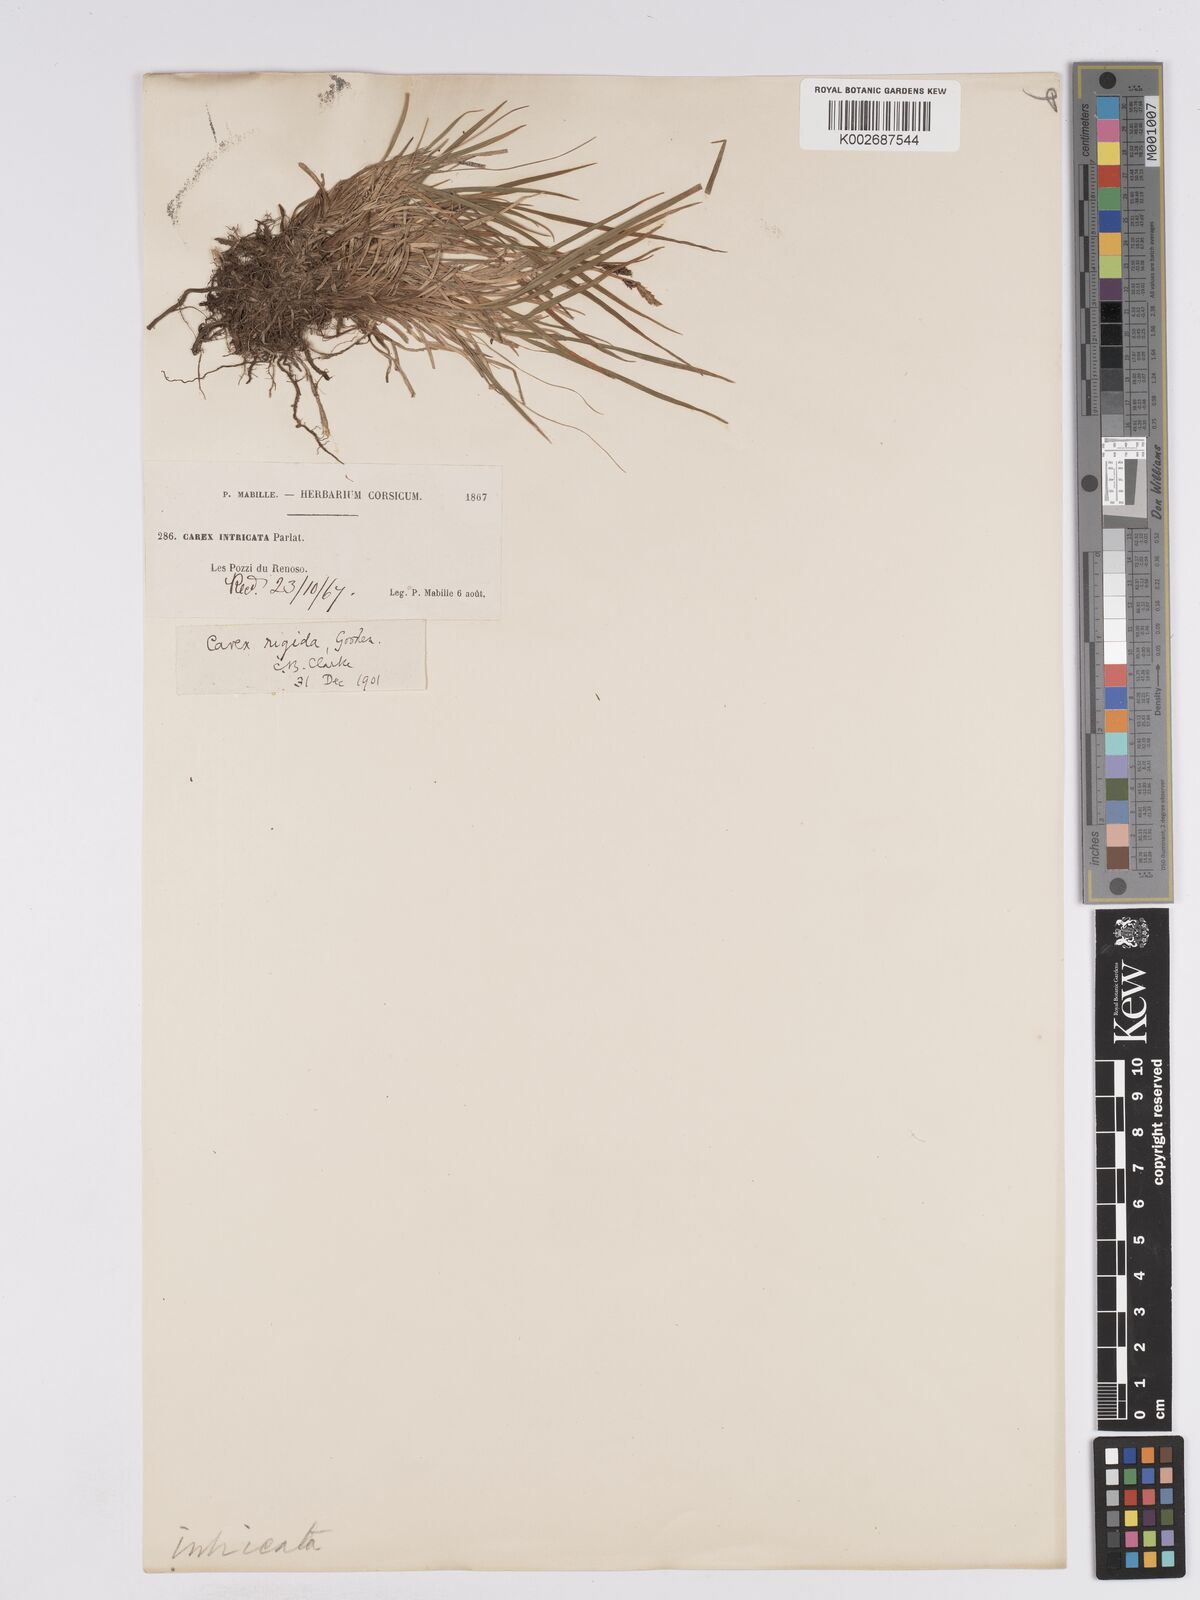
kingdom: Plantae
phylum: Tracheophyta
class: Liliopsida
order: Poales
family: Cyperaceae
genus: Carex
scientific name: Carex nigra
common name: Common sedge
